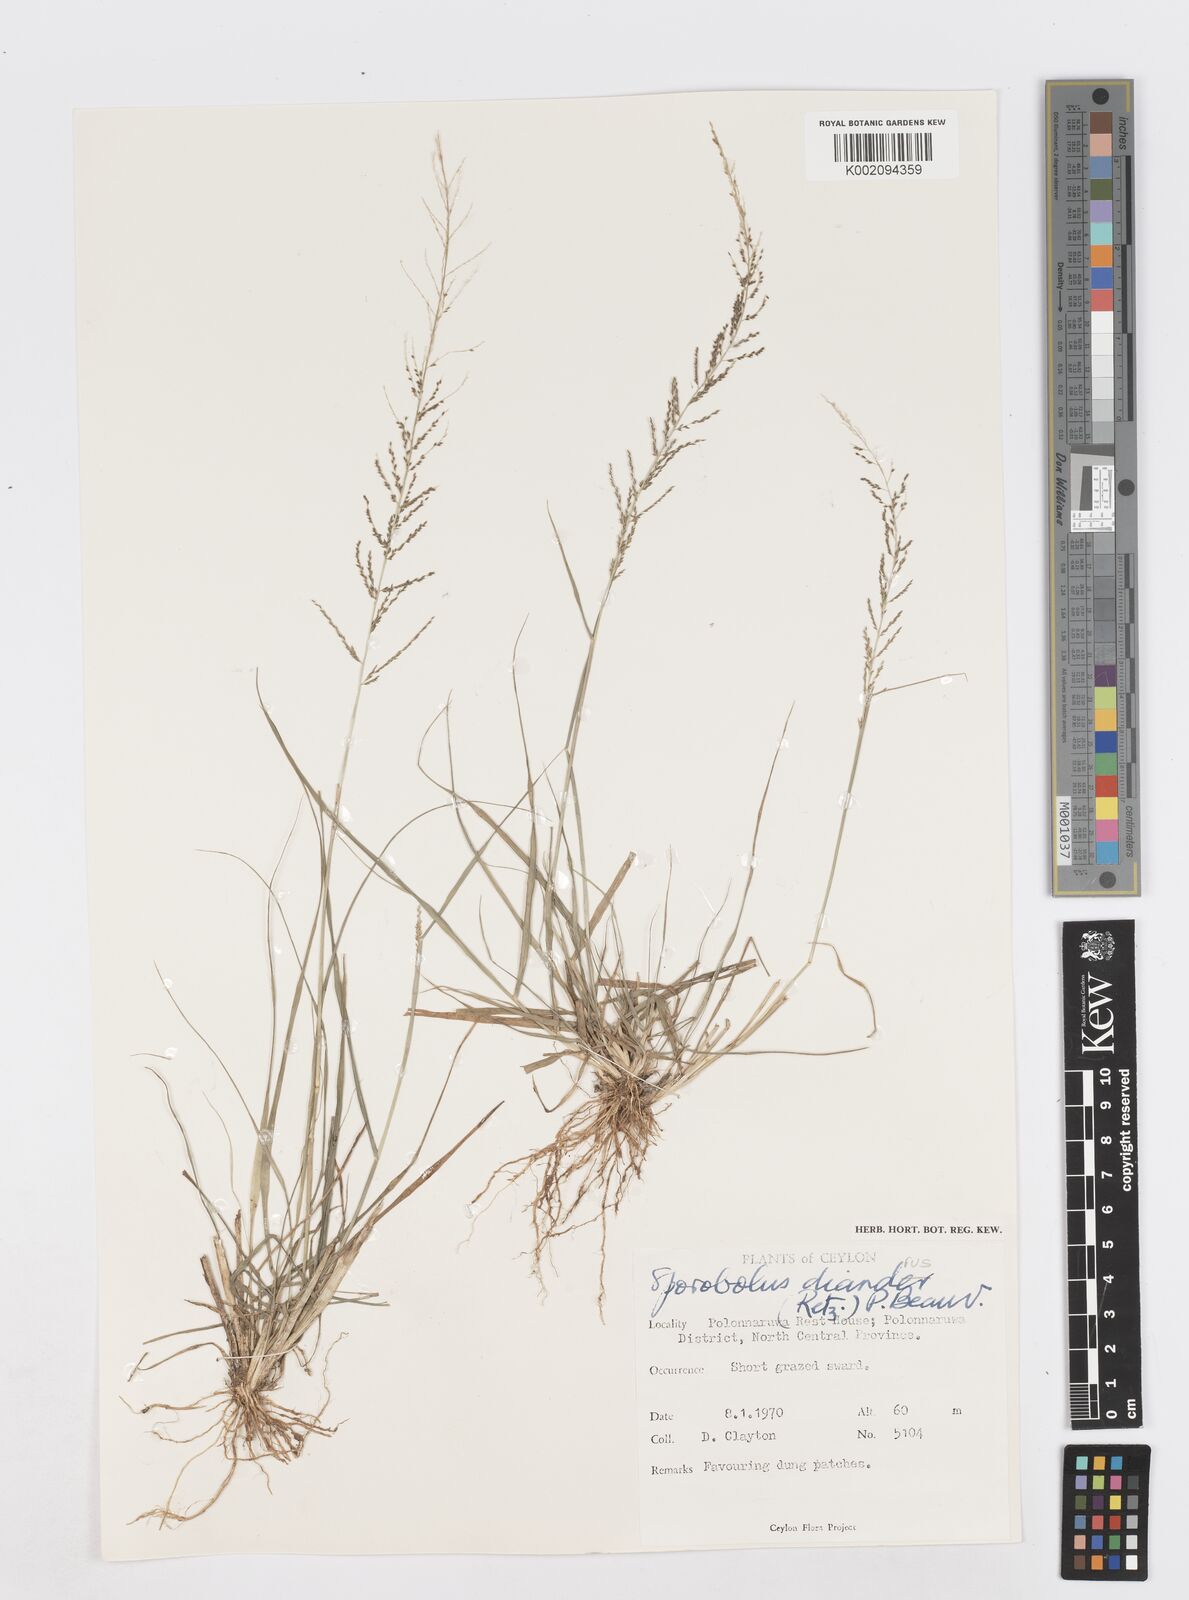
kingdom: Plantae
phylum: Tracheophyta
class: Liliopsida
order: Poales
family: Poaceae
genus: Sporobolus
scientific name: Sporobolus diandrus
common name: Tussock dropseed
